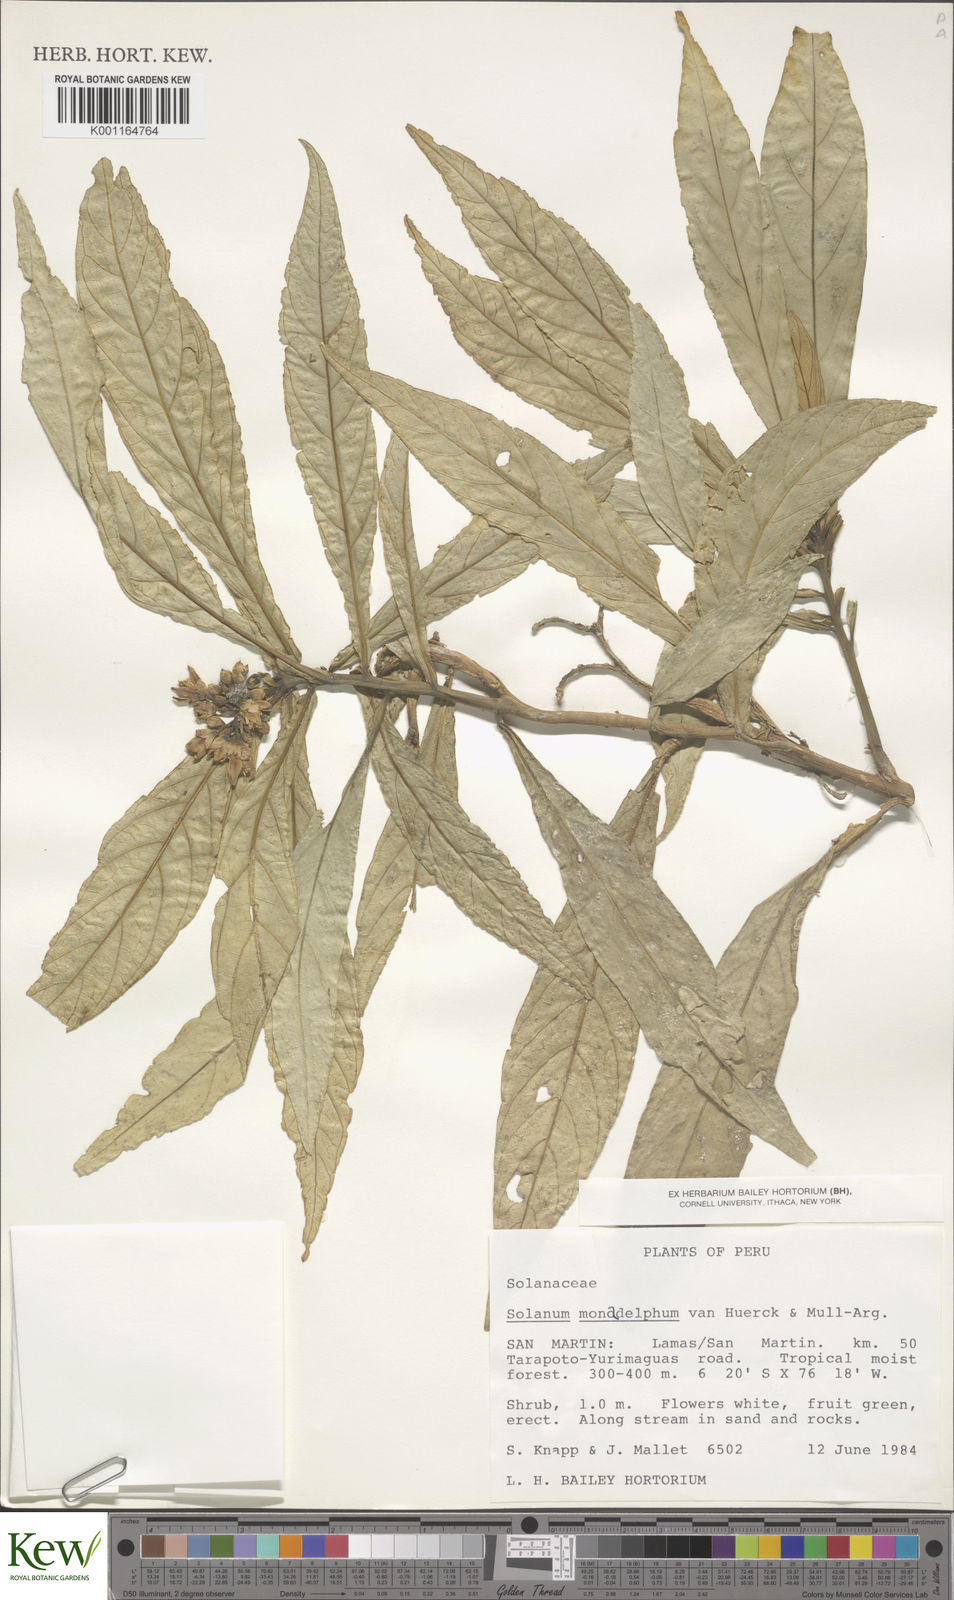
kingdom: Plantae
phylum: Tracheophyta
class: Magnoliopsida
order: Solanales
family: Solanaceae
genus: Solanum
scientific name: Solanum monadelphum
